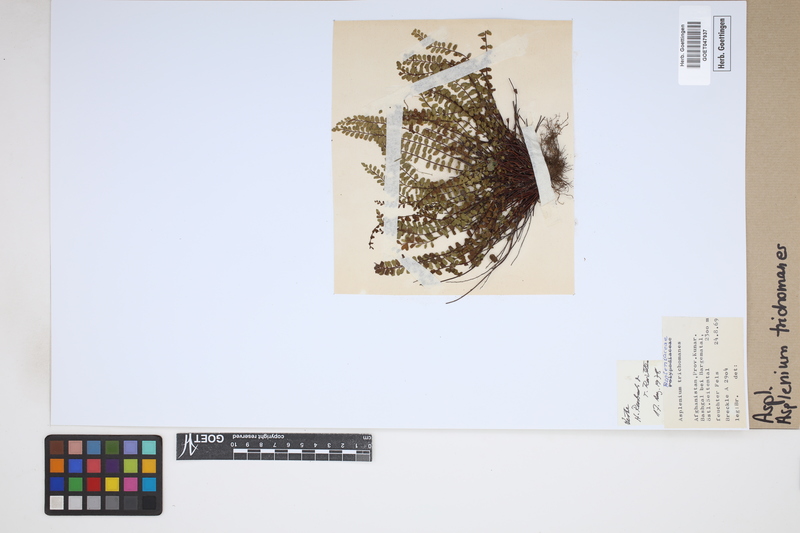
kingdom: Plantae
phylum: Tracheophyta
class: Polypodiopsida
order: Polypodiales
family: Aspleniaceae
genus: Asplenium
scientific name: Asplenium trichomanes
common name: Maidenhair spleenwort
